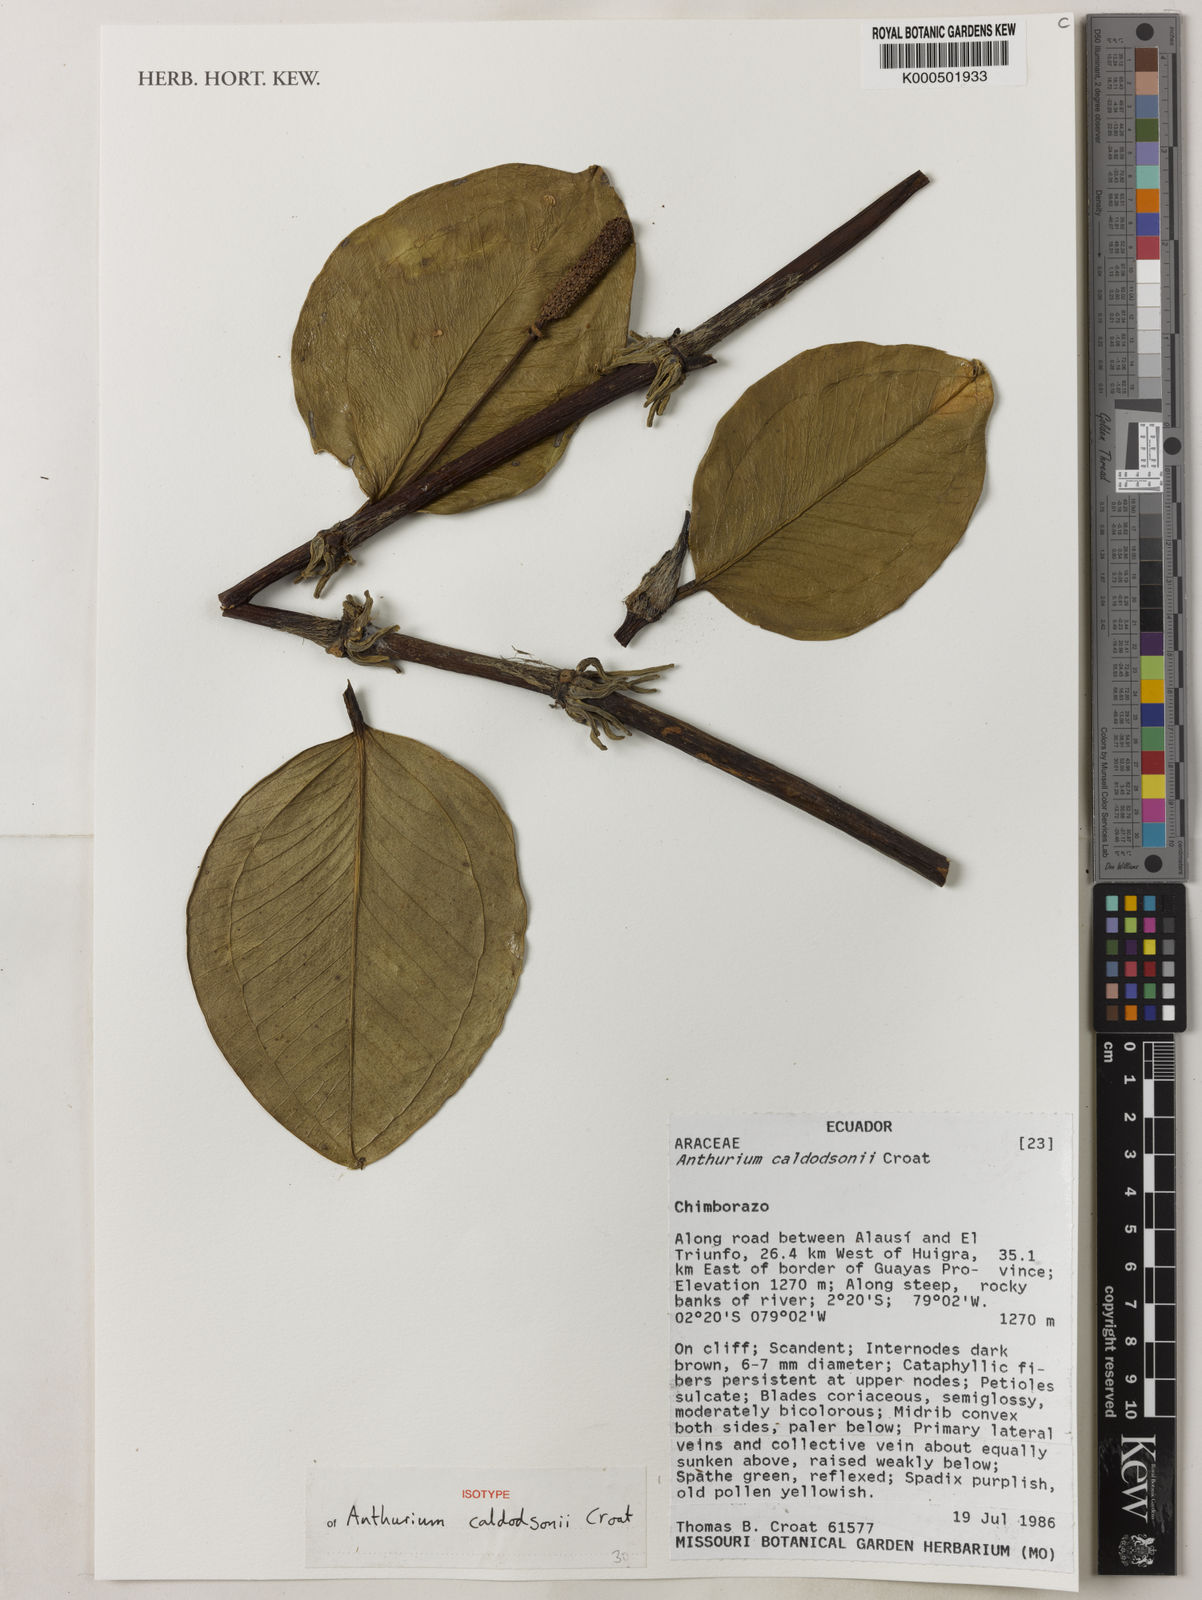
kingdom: Plantae
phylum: Tracheophyta
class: Liliopsida
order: Alismatales
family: Araceae
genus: Anthurium
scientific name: Anthurium caldodsonii
